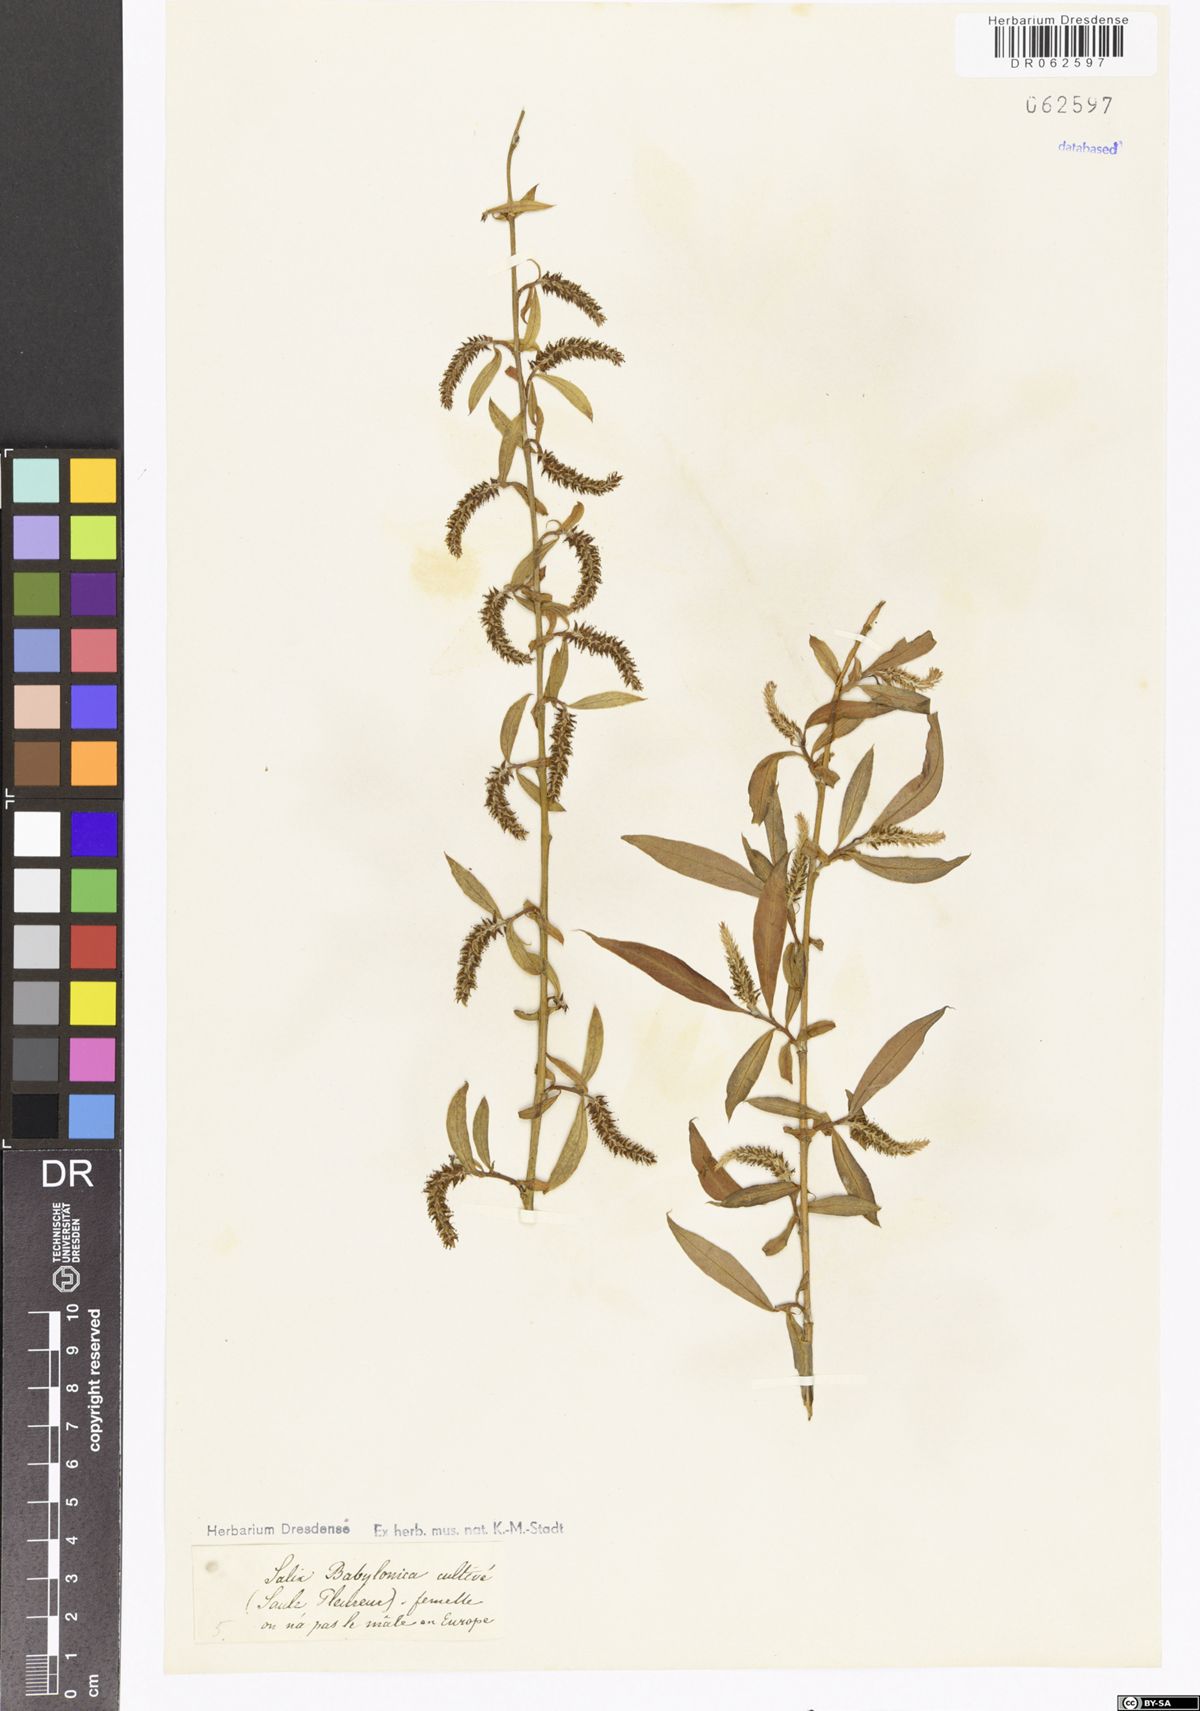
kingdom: Plantae
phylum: Tracheophyta
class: Magnoliopsida
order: Malpighiales
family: Salicaceae
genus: Salix
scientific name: Salix babylonica
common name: Weeping willow
